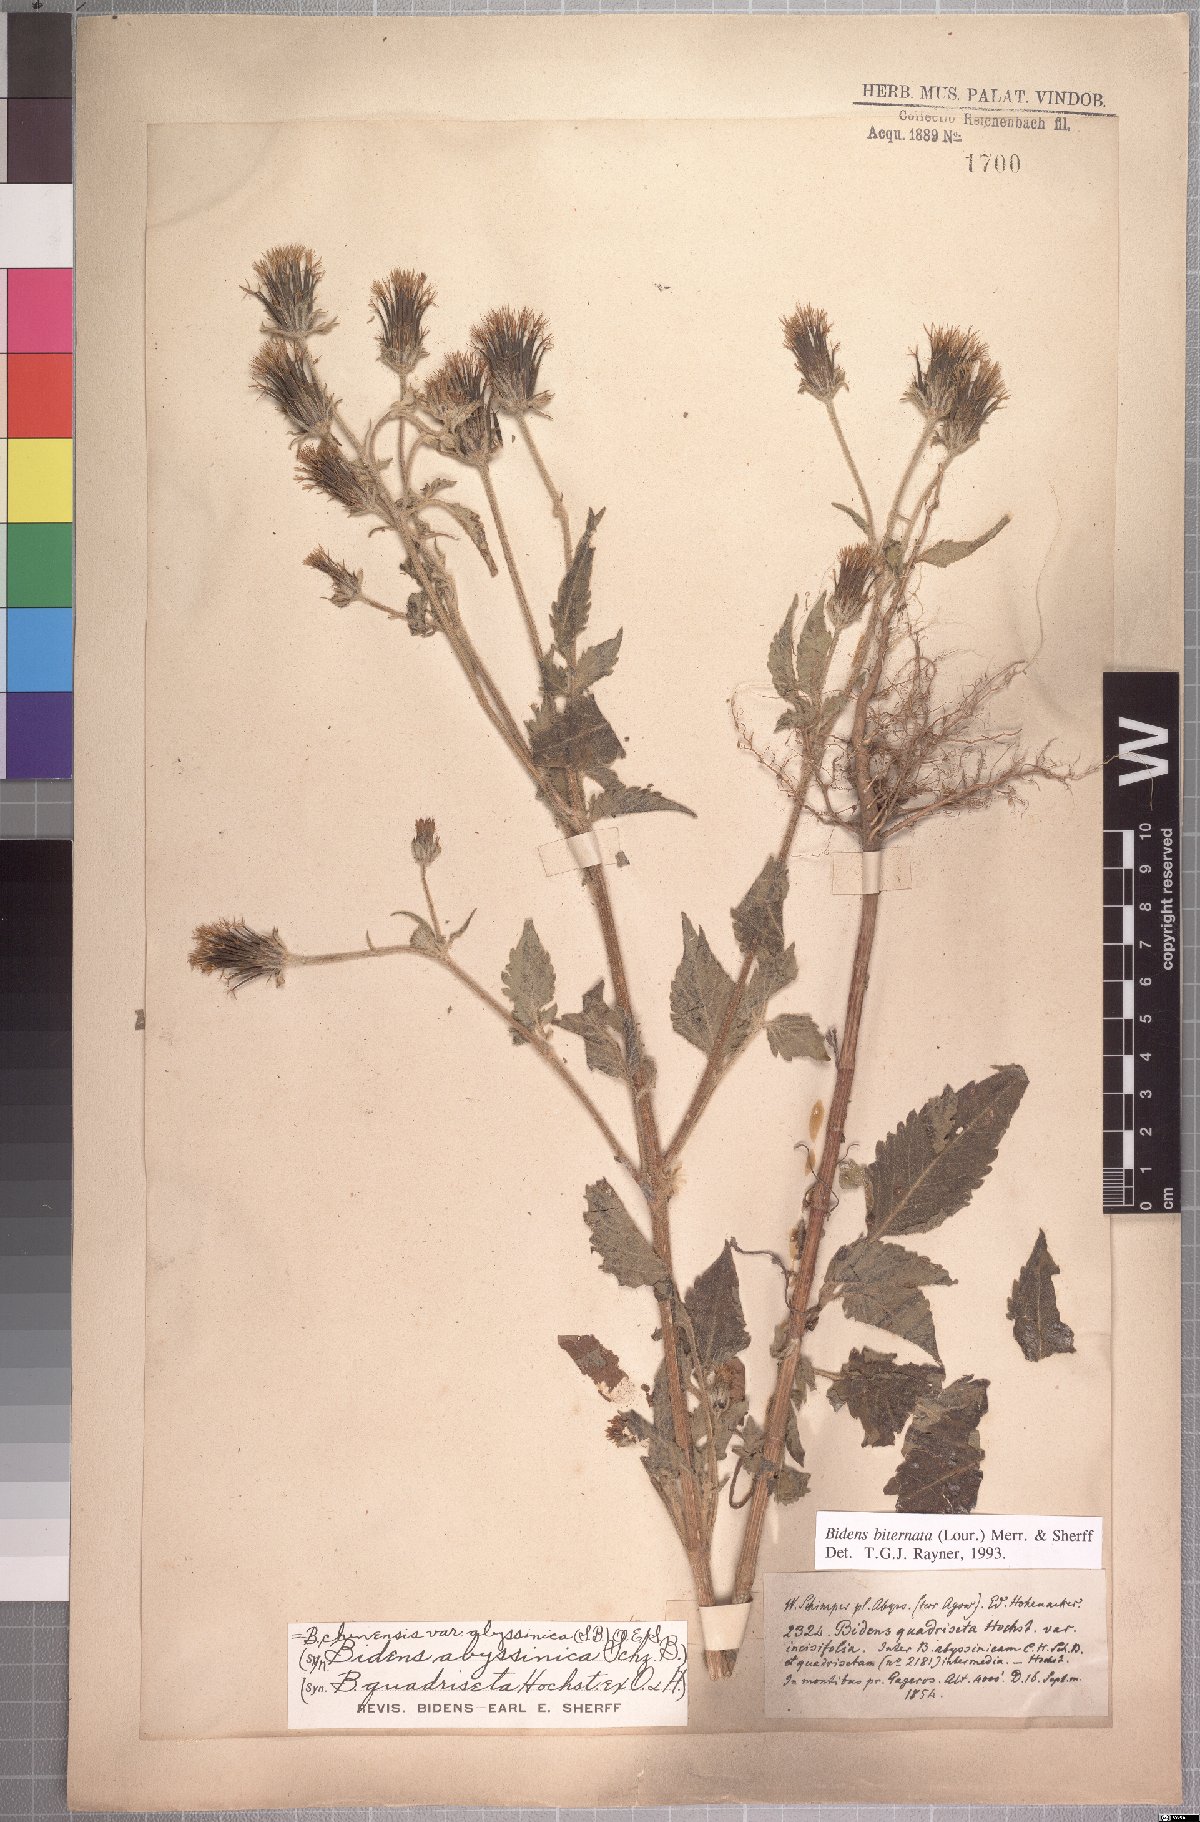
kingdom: Plantae
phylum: Tracheophyta
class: Magnoliopsida
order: Asterales
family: Asteraceae
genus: Bidens
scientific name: Bidens biternata
